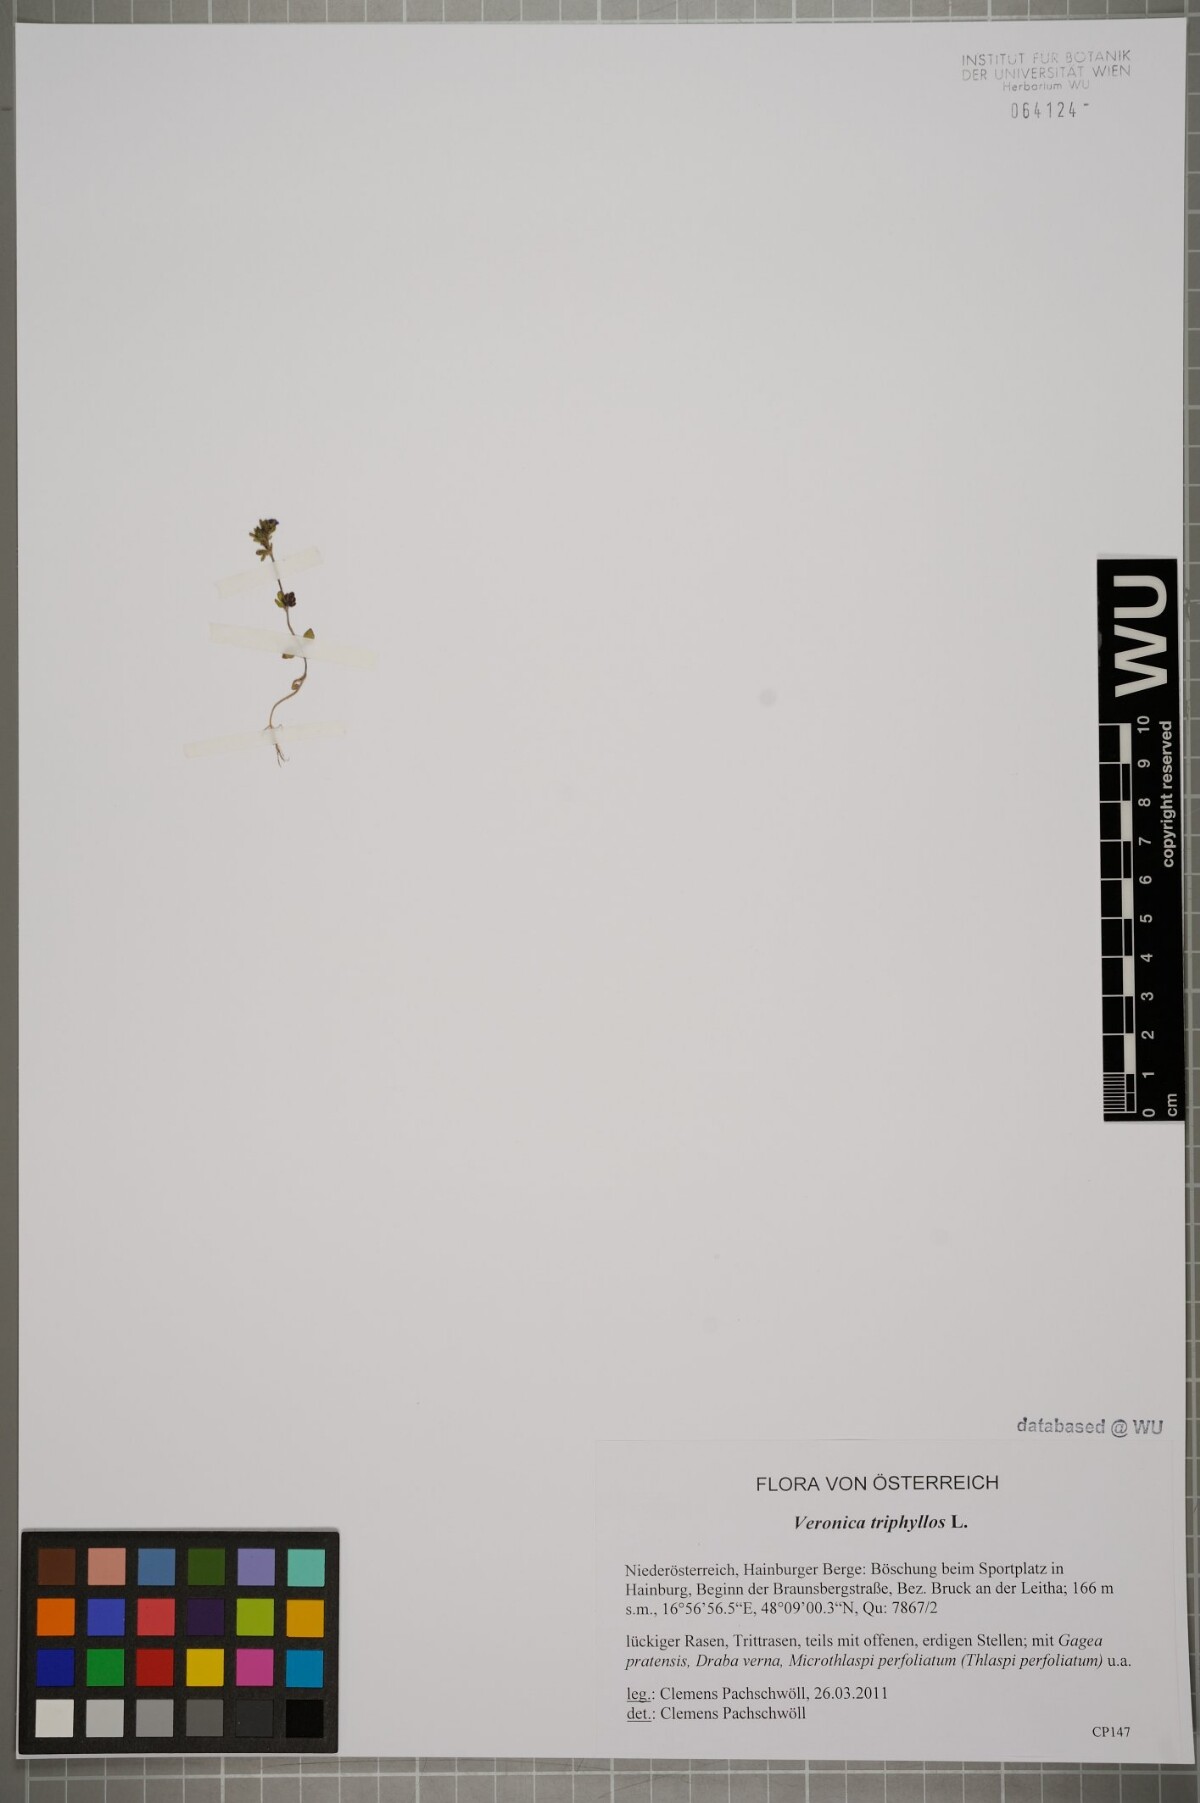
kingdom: Plantae
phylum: Tracheophyta
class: Magnoliopsida
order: Lamiales
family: Plantaginaceae
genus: Veronica
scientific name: Veronica triphyllos
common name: Fingered speedwell
